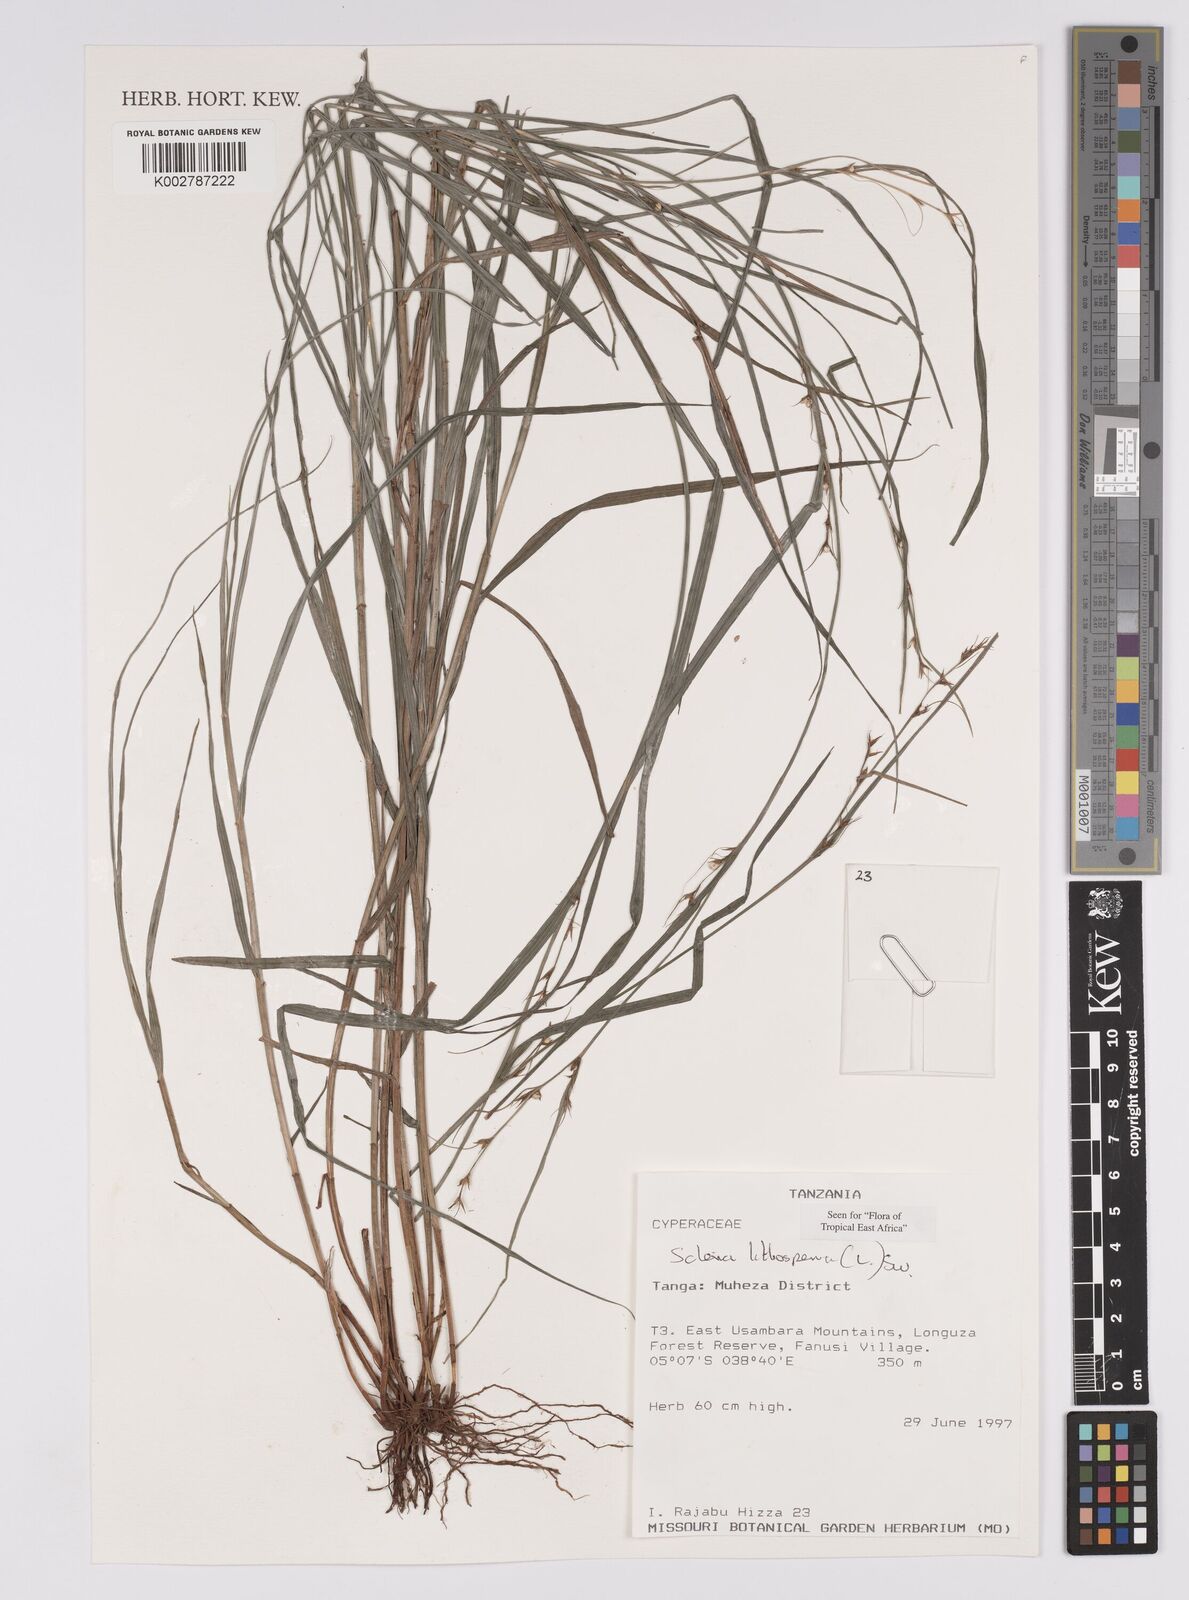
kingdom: Plantae
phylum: Tracheophyta
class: Liliopsida
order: Poales
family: Cyperaceae
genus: Scleria
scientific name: Scleria lithosperma
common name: Florida keys nut-rush
